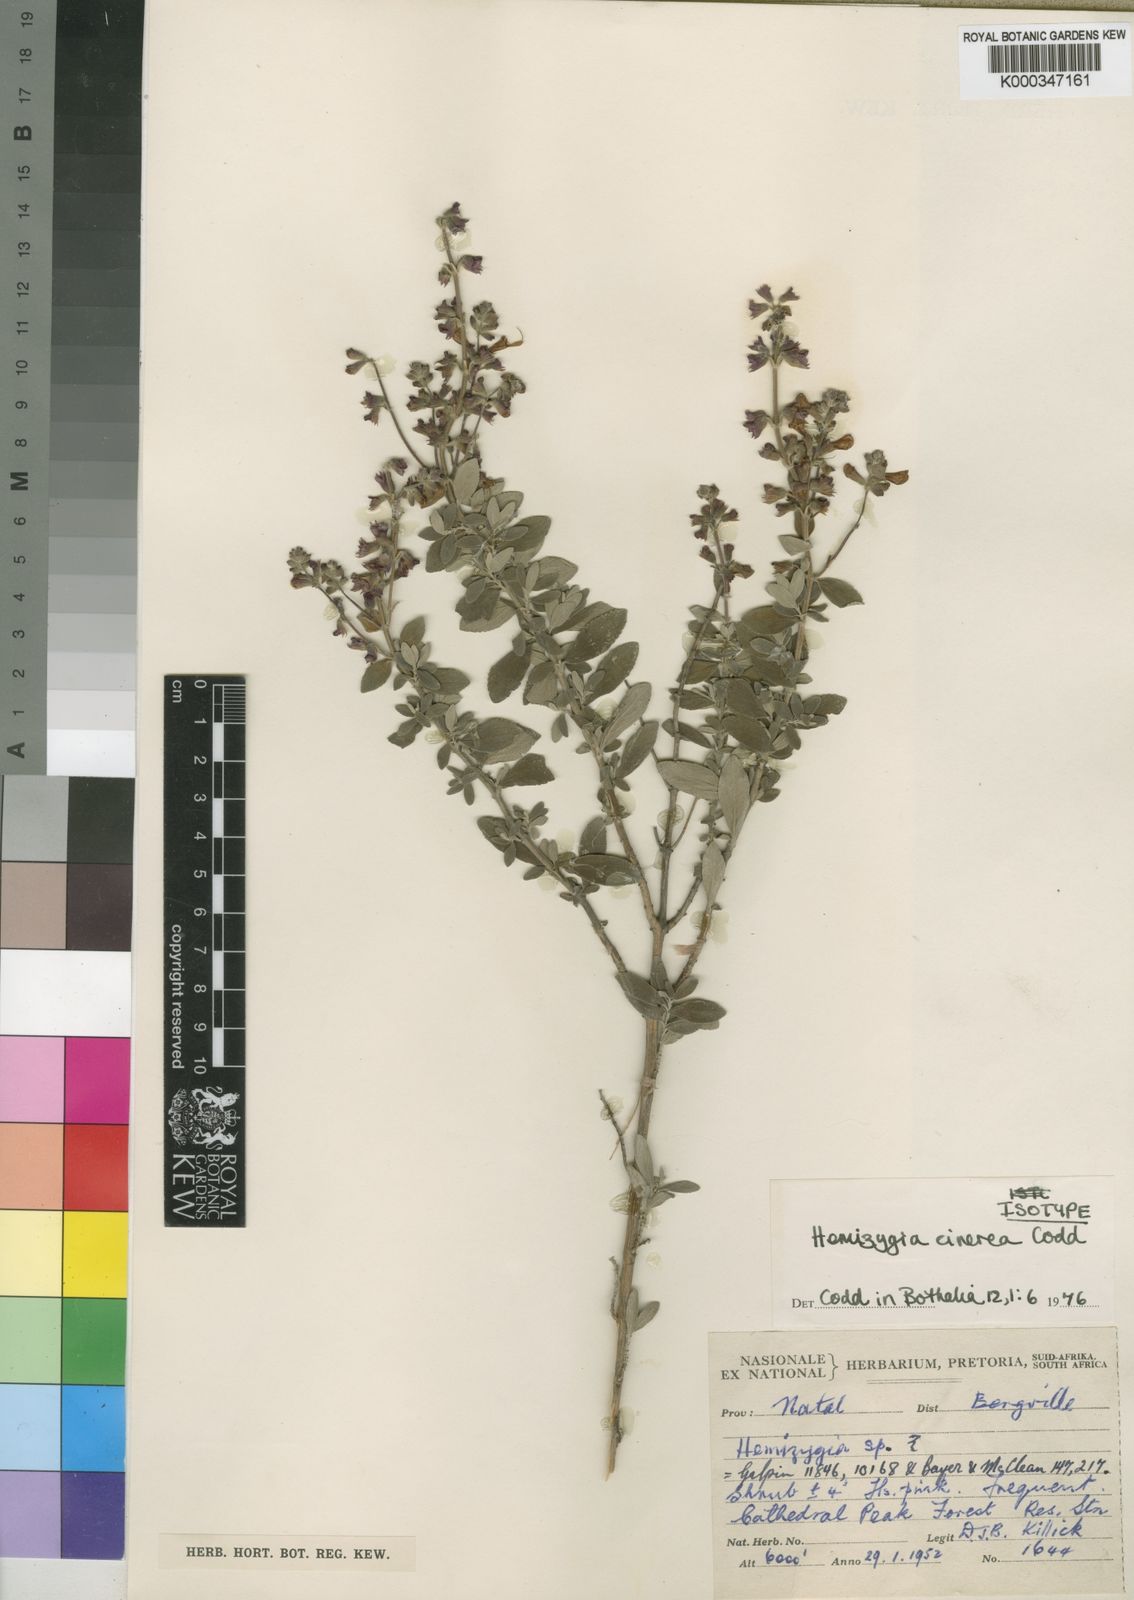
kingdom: Plantae
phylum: Tracheophyta
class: Magnoliopsida
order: Lamiales
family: Lamiaceae
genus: Syncolostemon
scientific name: Syncolostemon cinereum
